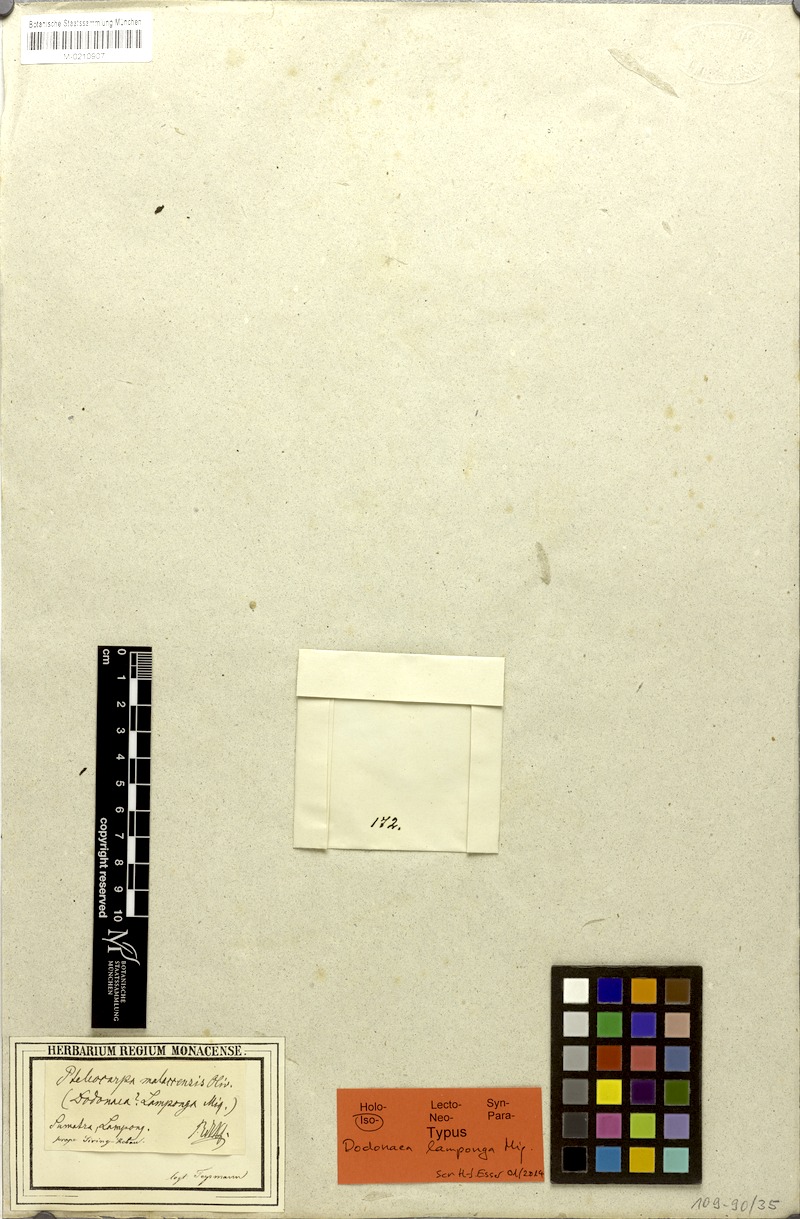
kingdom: Plantae
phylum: Tracheophyta
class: Magnoliopsida
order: Gentianales
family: Gelsemiaceae
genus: Pteleocarpa
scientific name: Pteleocarpa lamponga
